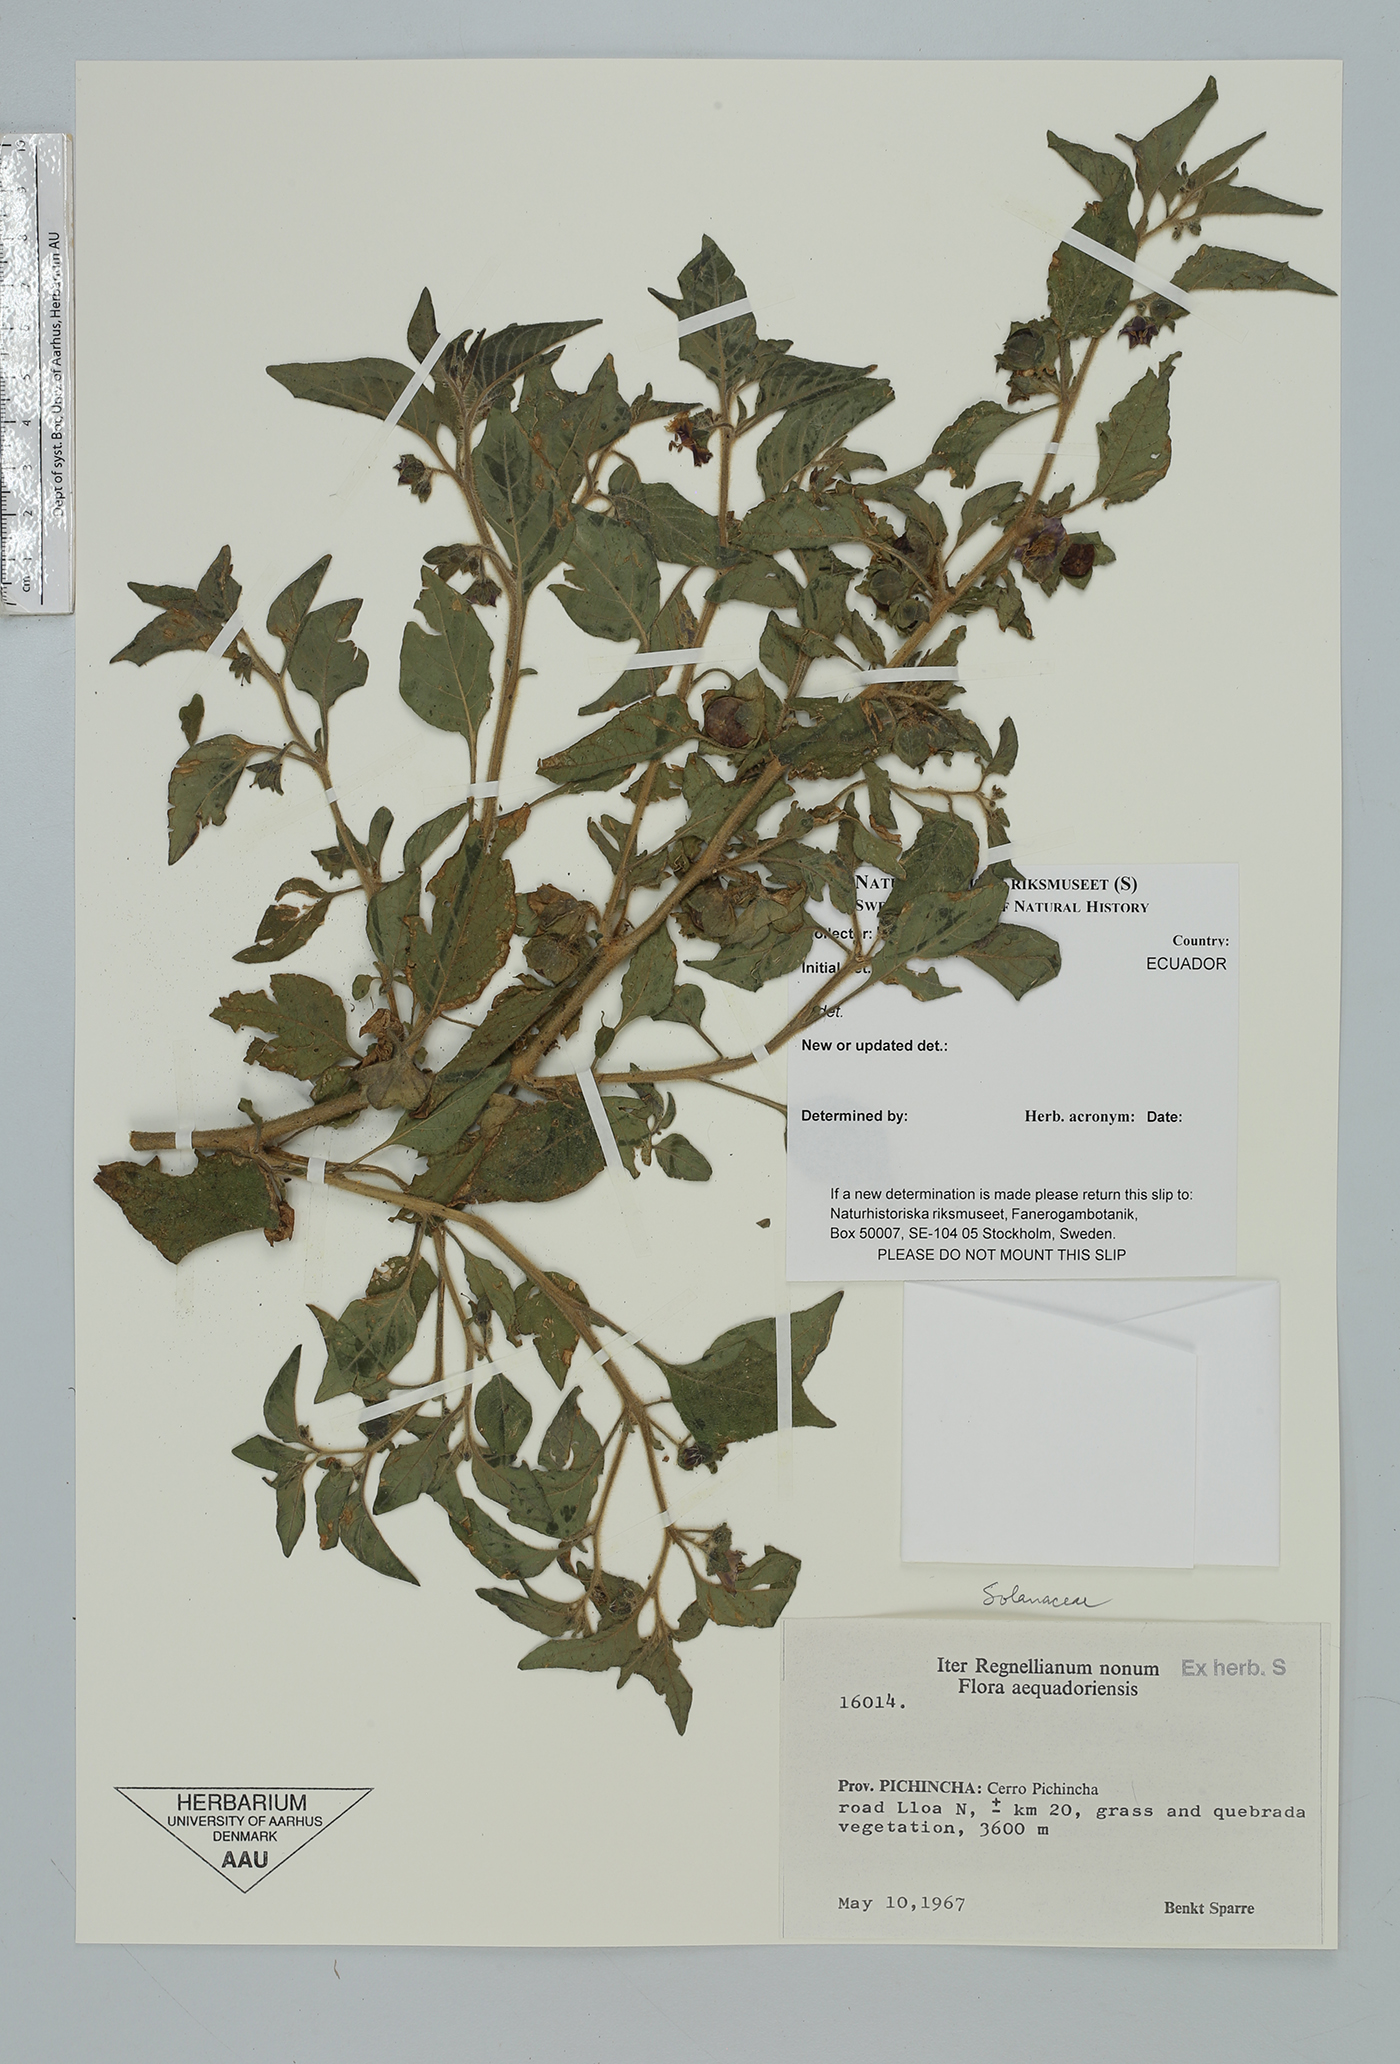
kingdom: Plantae
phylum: Tracheophyta
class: Magnoliopsida
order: Solanales
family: Solanaceae
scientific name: Solanaceae
